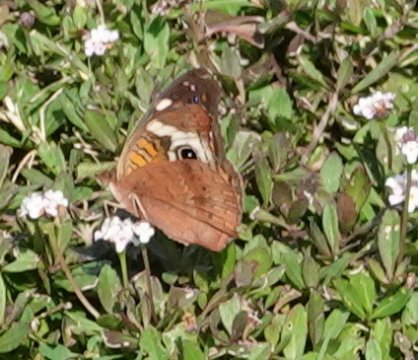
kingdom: Animalia
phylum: Arthropoda
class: Insecta
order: Lepidoptera
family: Nymphalidae
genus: Junonia
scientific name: Junonia coenia
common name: Common Buckeye
